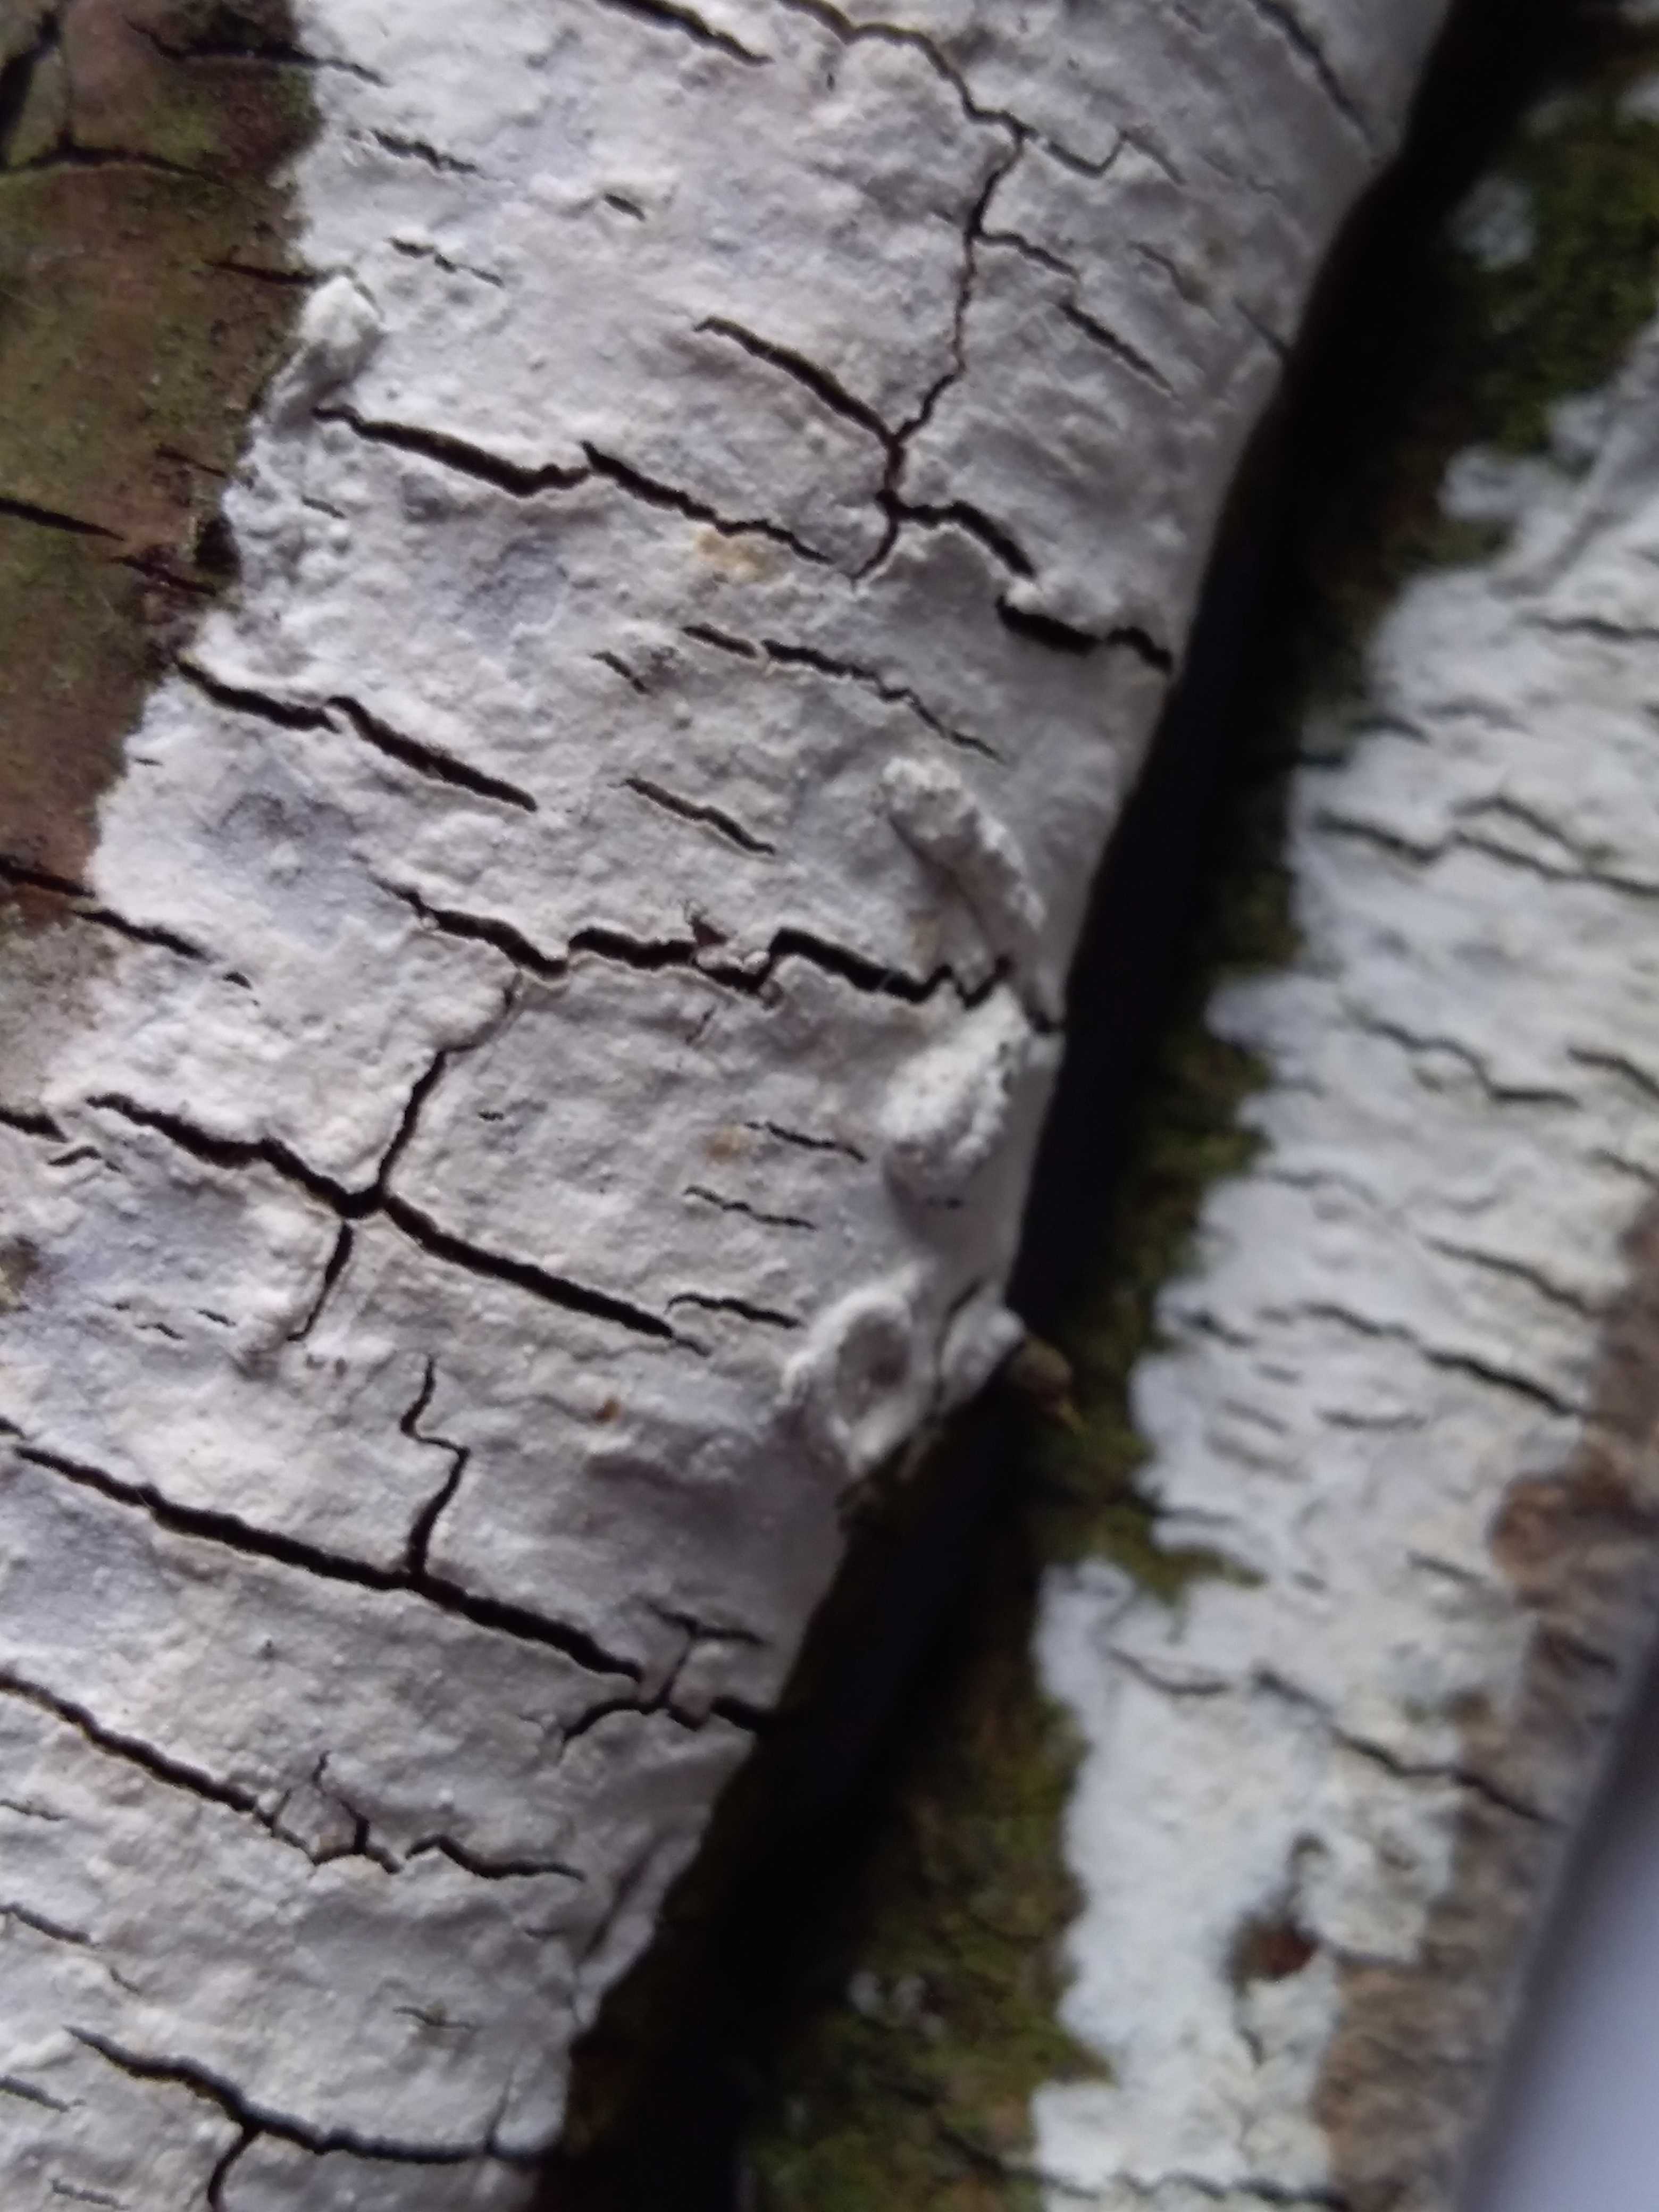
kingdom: Fungi
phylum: Basidiomycota
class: Agaricomycetes
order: Corticiales
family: Corticiaceae
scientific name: Corticiaceae
